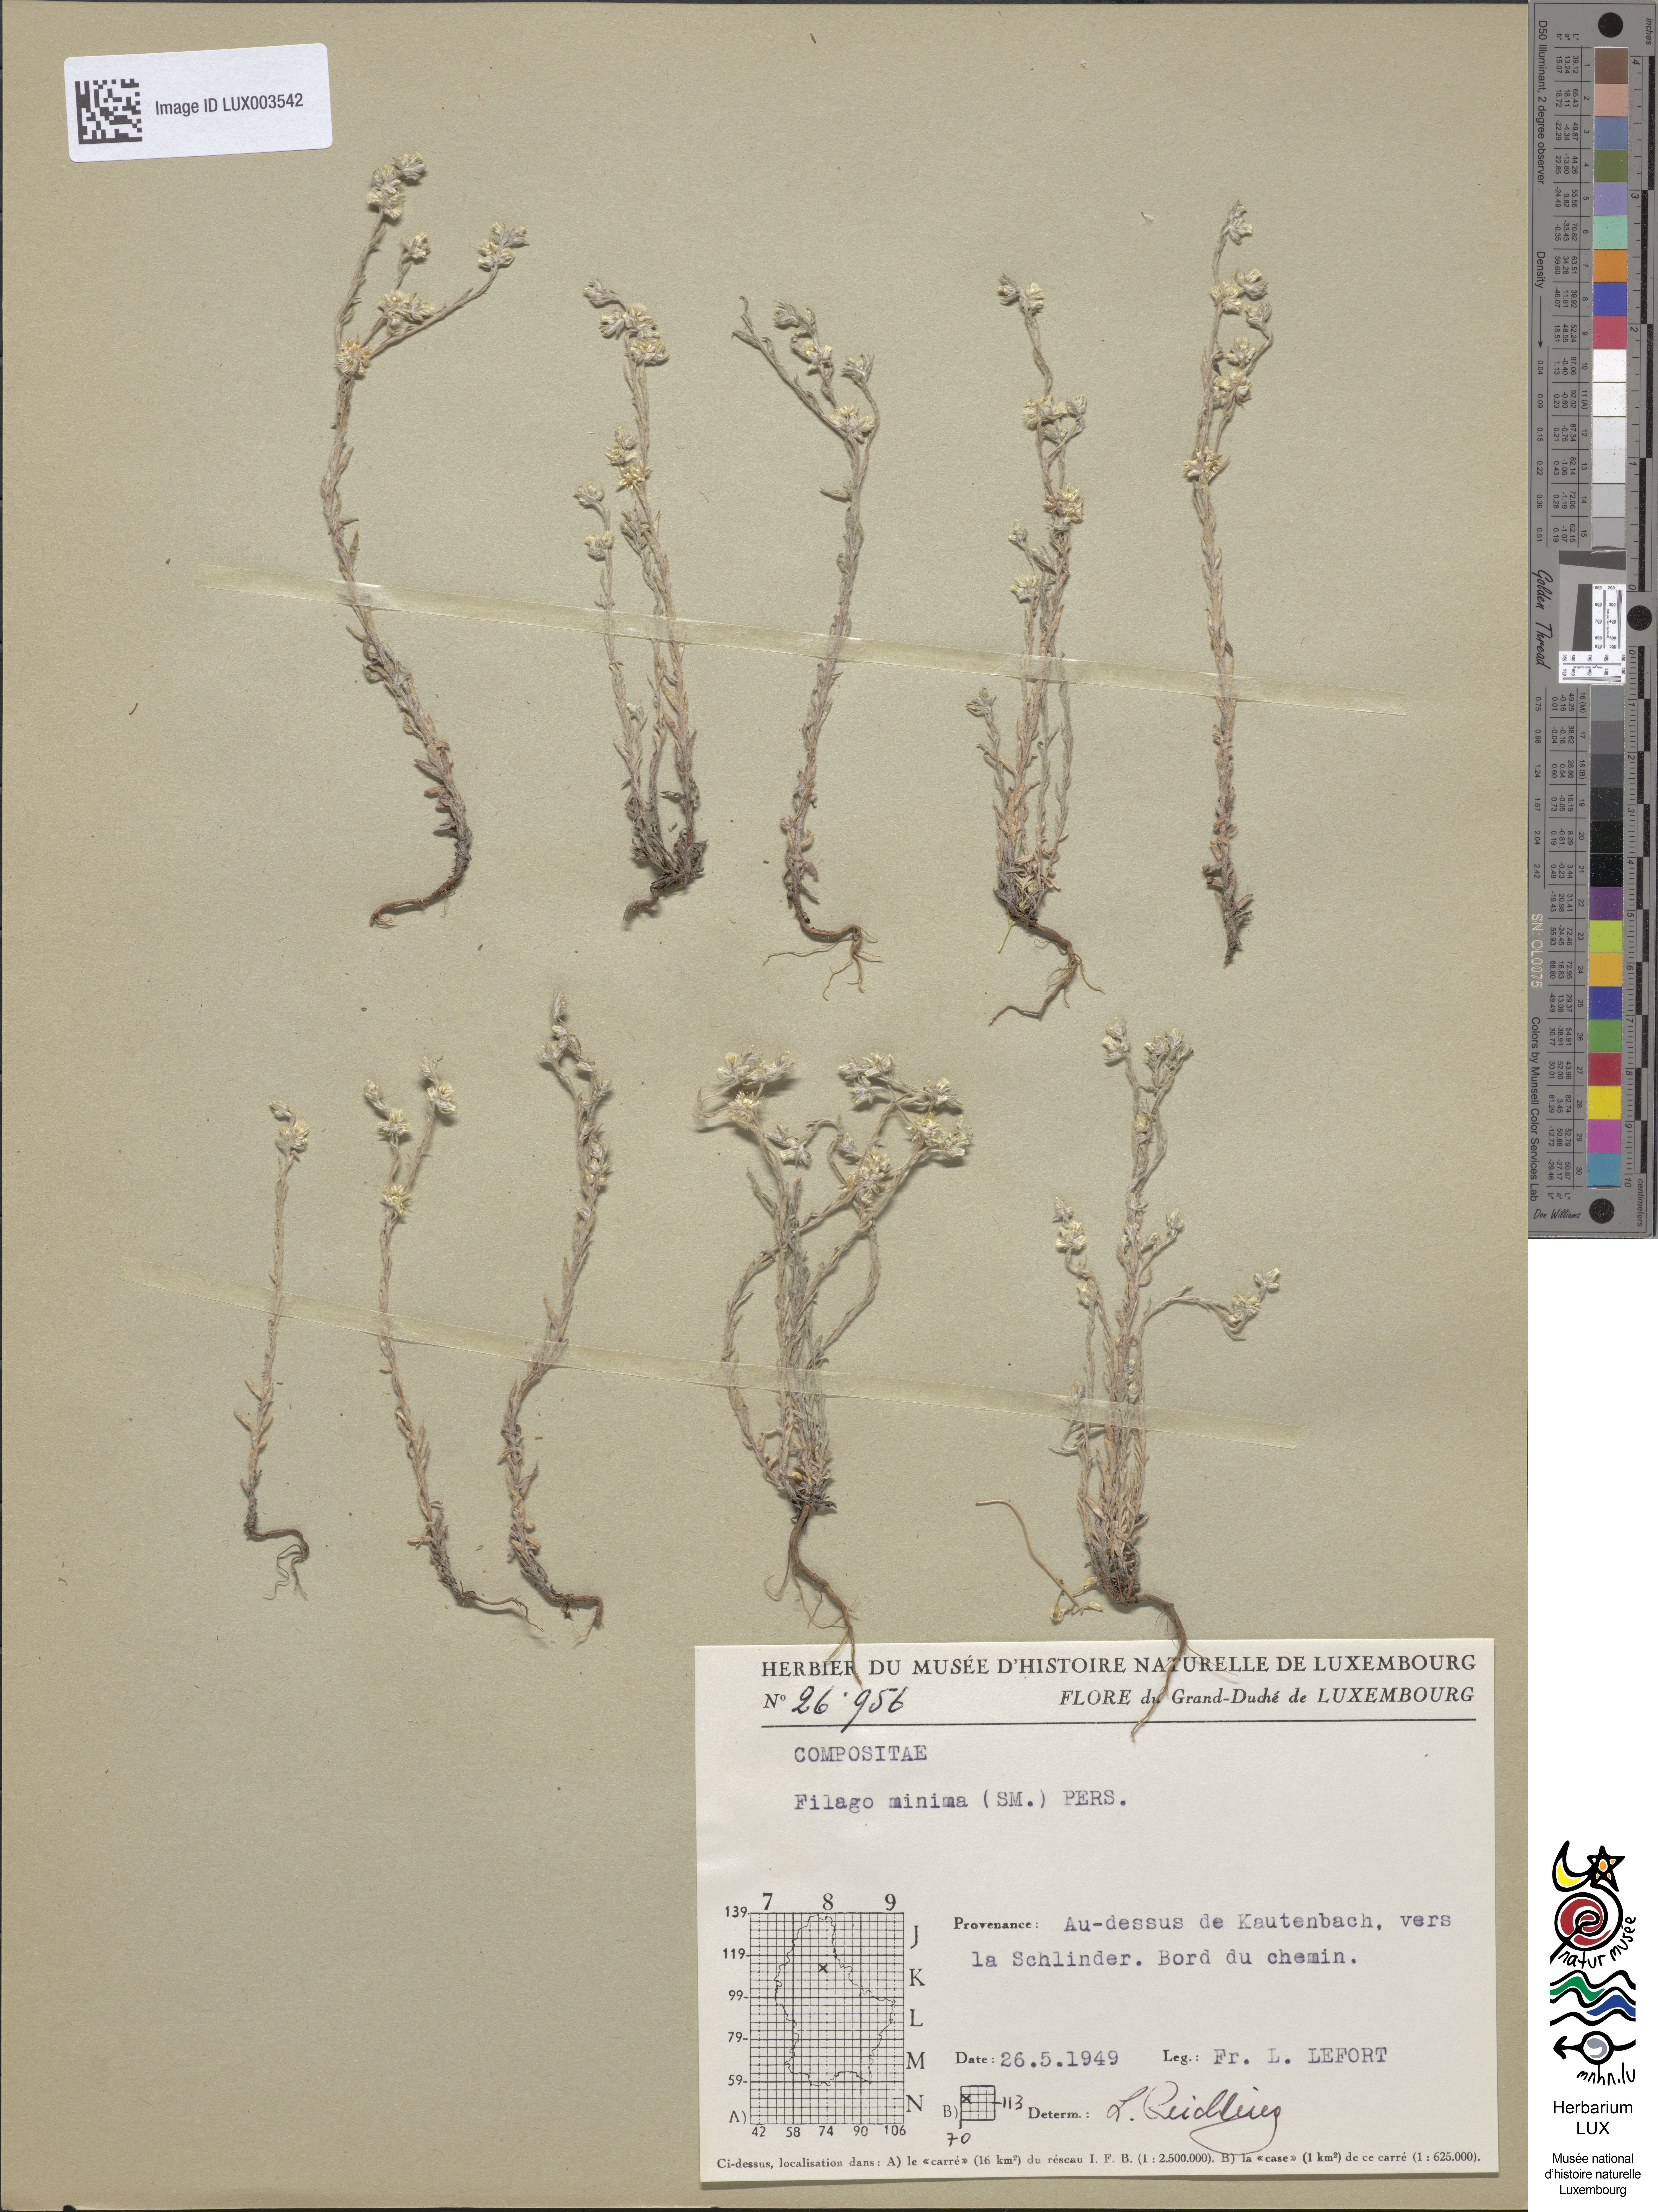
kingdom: Plantae
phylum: Tracheophyta
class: Magnoliopsida
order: Asterales
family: Asteraceae
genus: Logfia
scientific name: Logfia minima
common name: Little cottonrose
